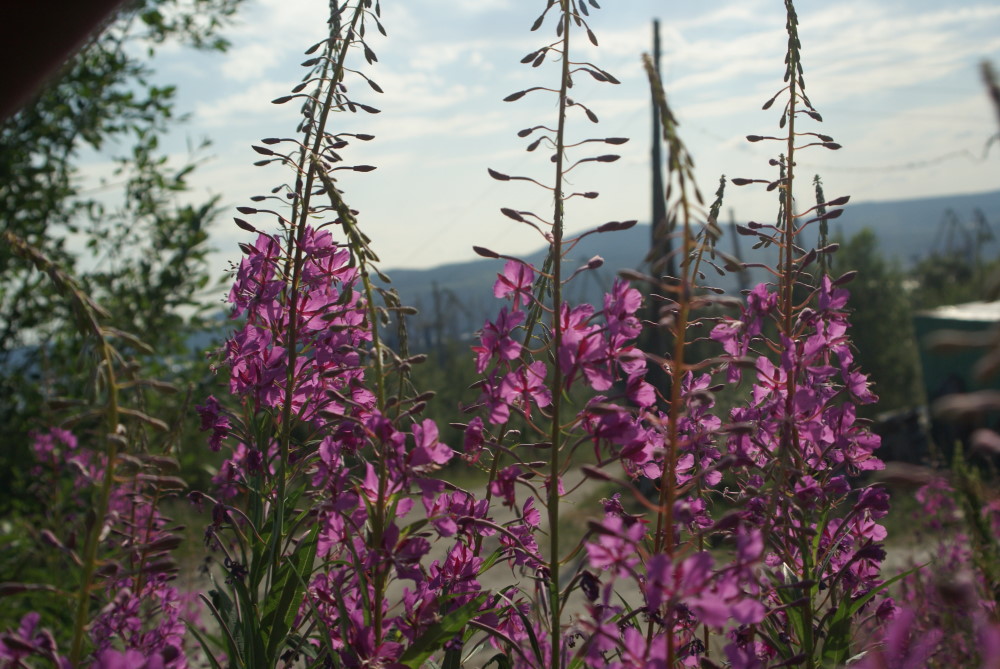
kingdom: Plantae
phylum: Tracheophyta
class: Magnoliopsida
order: Myrtales
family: Onagraceae
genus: Chamaenerion
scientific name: Chamaenerion angustifolium
